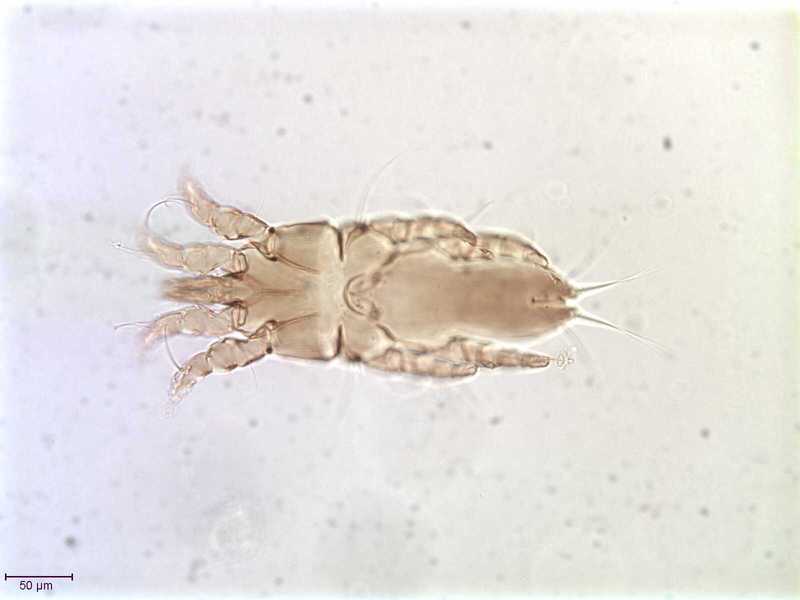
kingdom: Animalia
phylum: Arthropoda
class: Arachnida
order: Sarcoptiformes
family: Alloptidae
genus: Brephosceles
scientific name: Brephosceles longirostris
